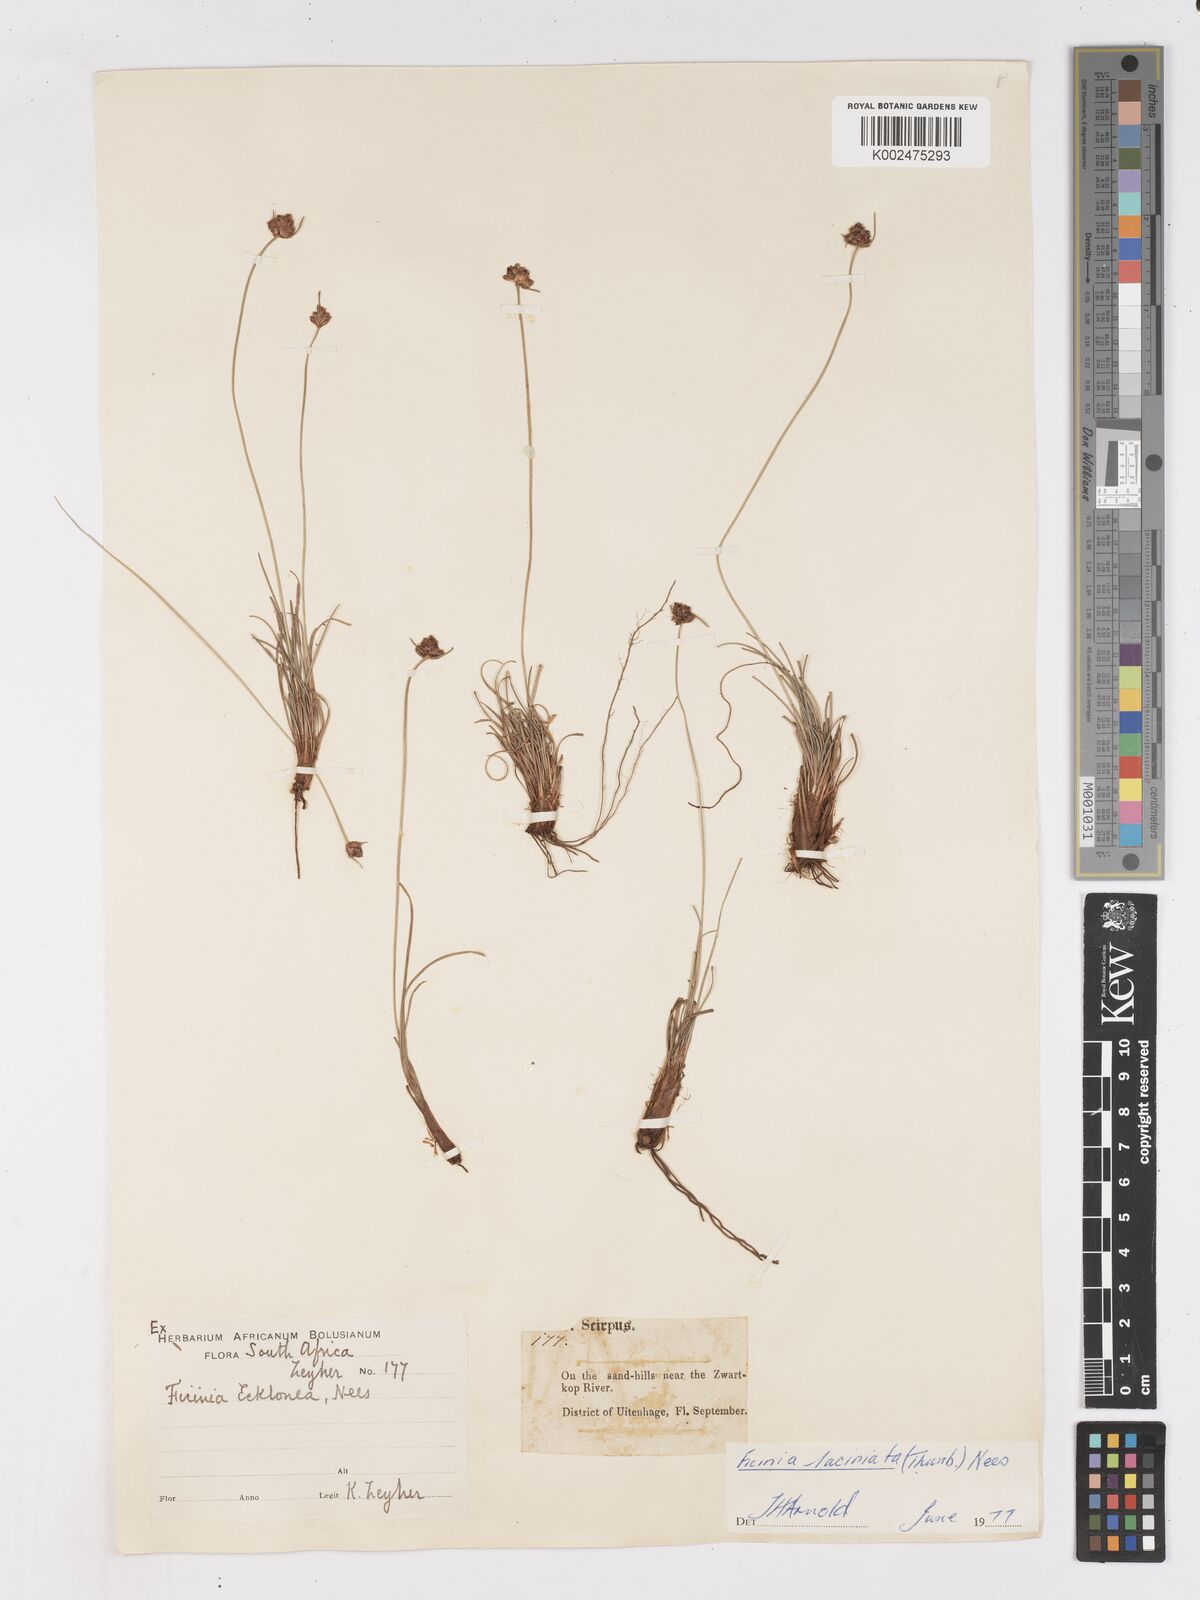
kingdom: Plantae
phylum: Tracheophyta
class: Liliopsida
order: Poales
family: Cyperaceae
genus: Ficinia
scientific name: Ficinia laciniata
